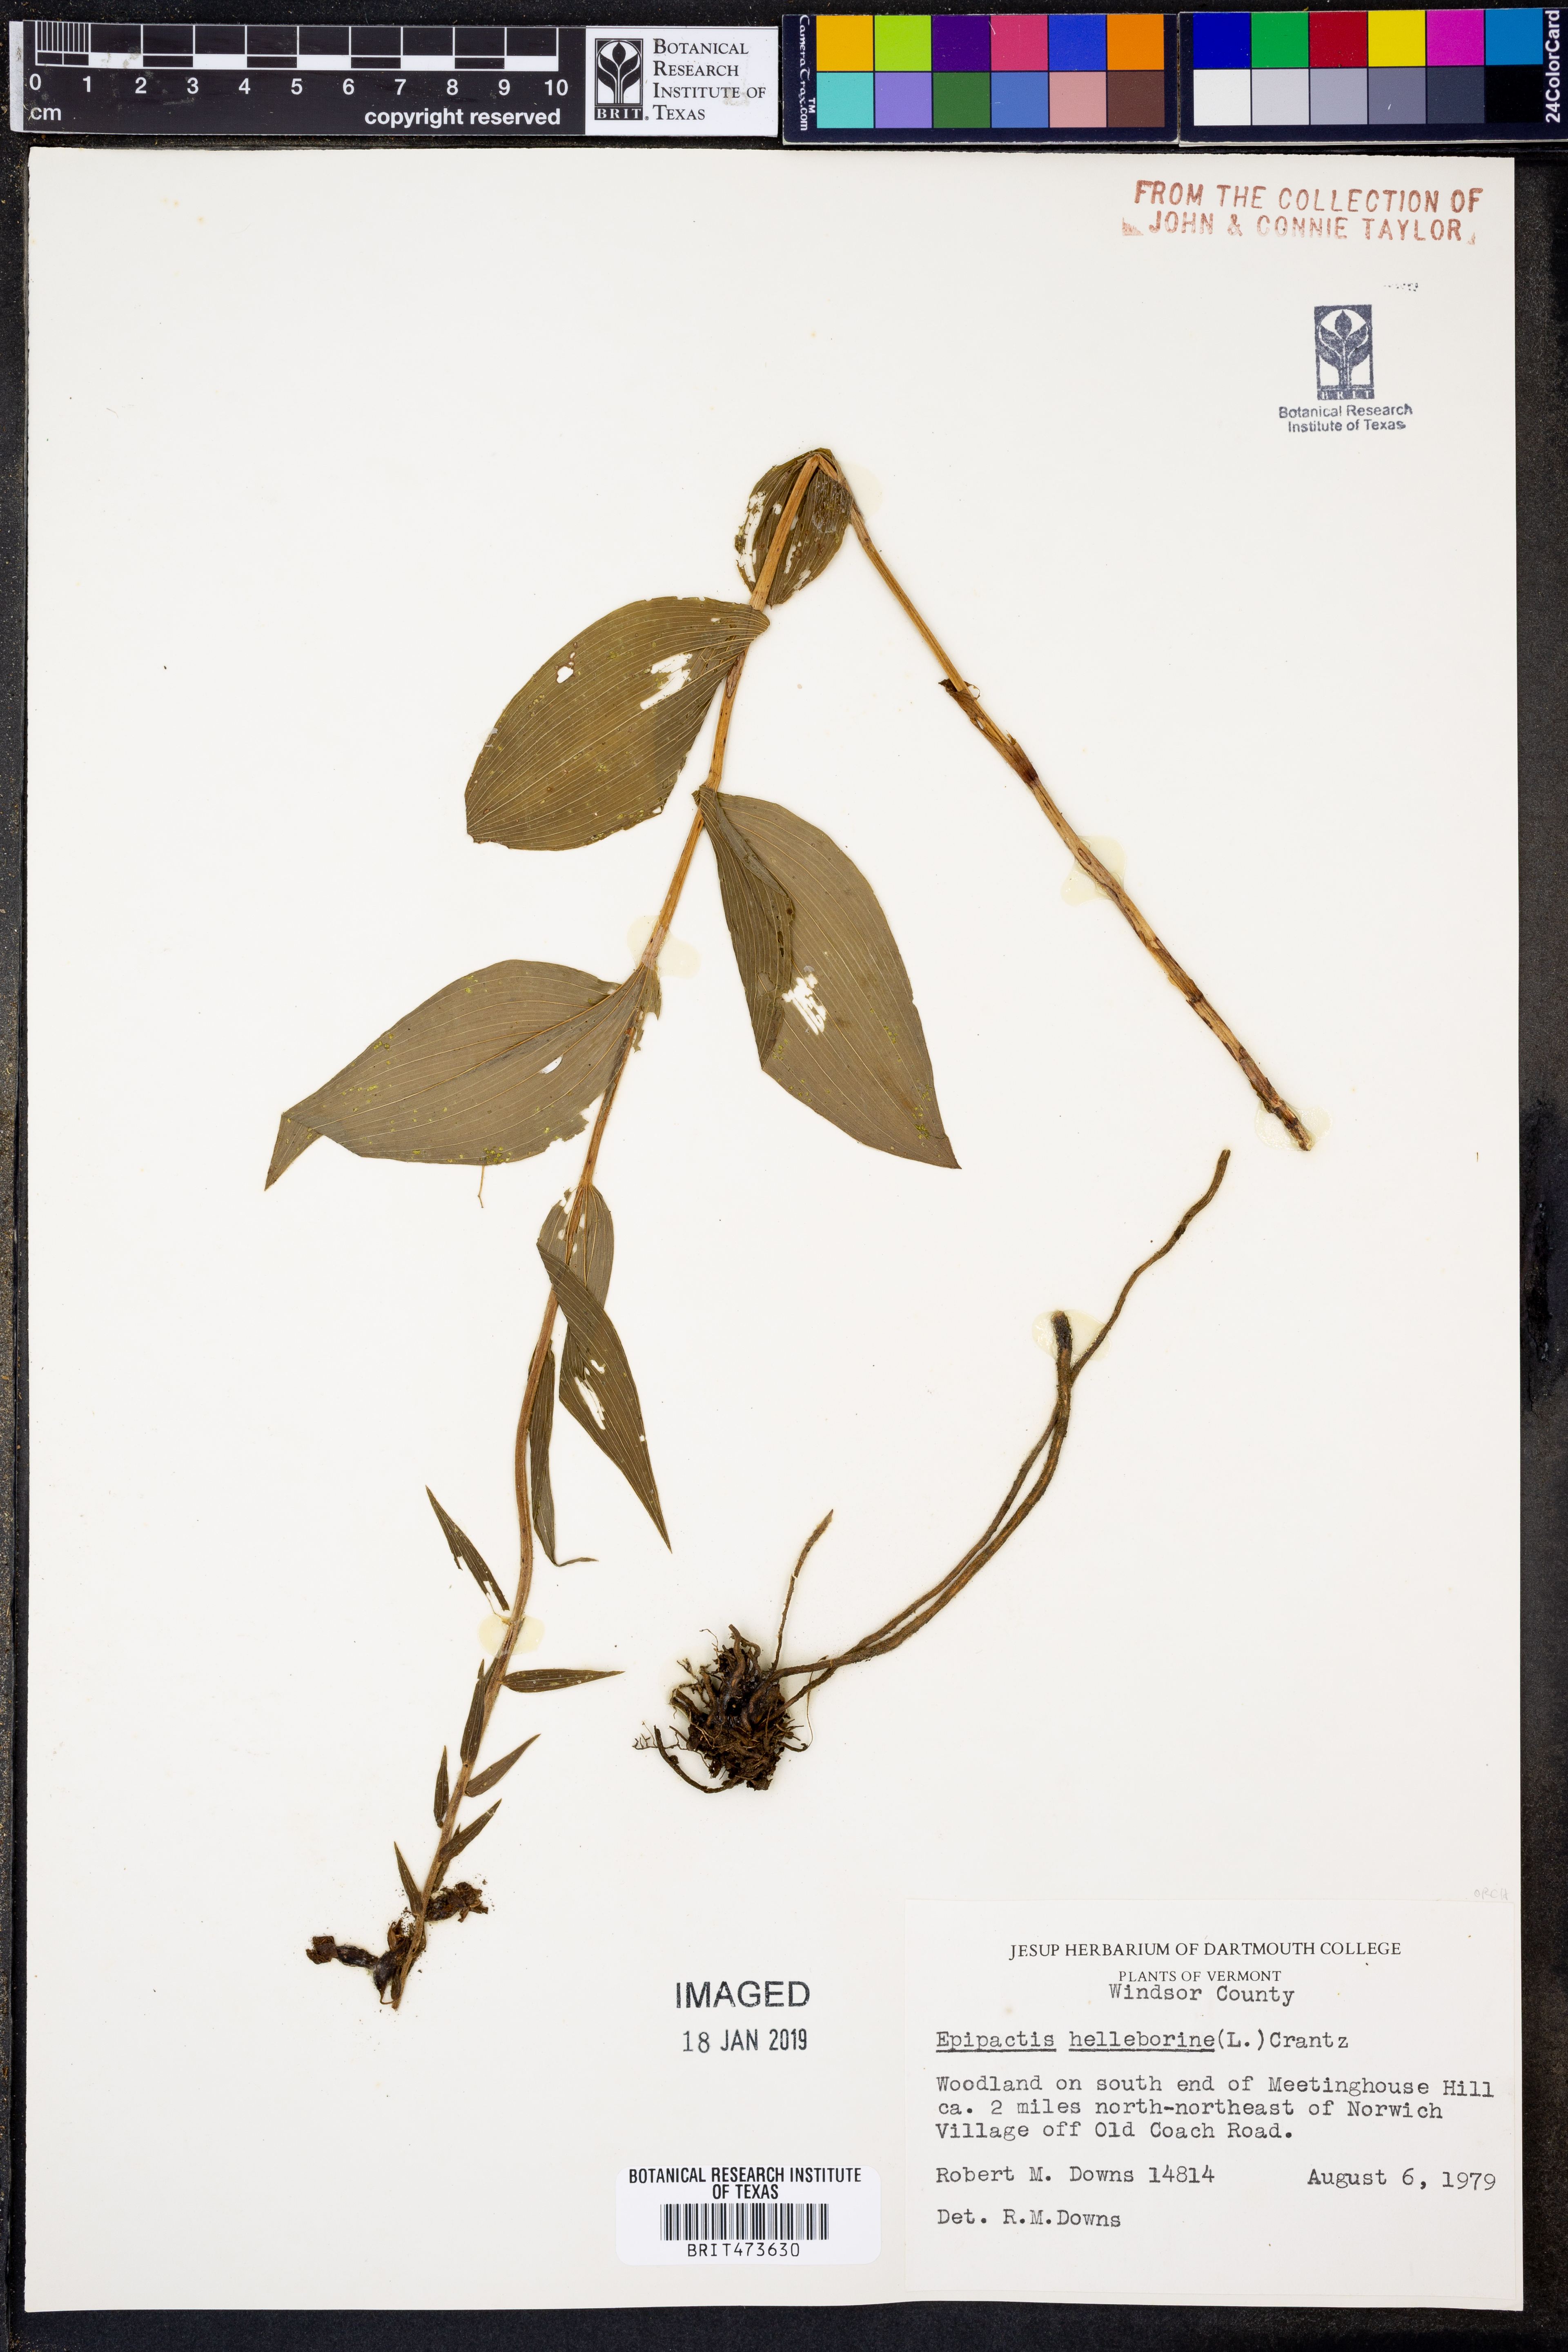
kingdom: Plantae
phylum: Tracheophyta
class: Liliopsida
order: Asparagales
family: Orchidaceae
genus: Epipactis
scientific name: Epipactis helleborine
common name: Broad-leaved helleborine
